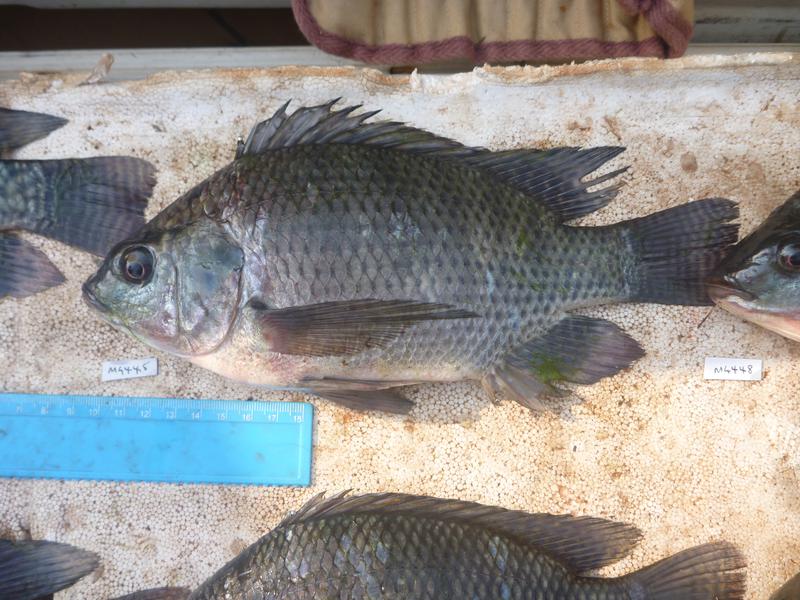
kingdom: Animalia
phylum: Chordata
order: Perciformes
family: Cichlidae
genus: Oreochromis
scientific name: Oreochromis niloticus
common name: Nile tilapia
